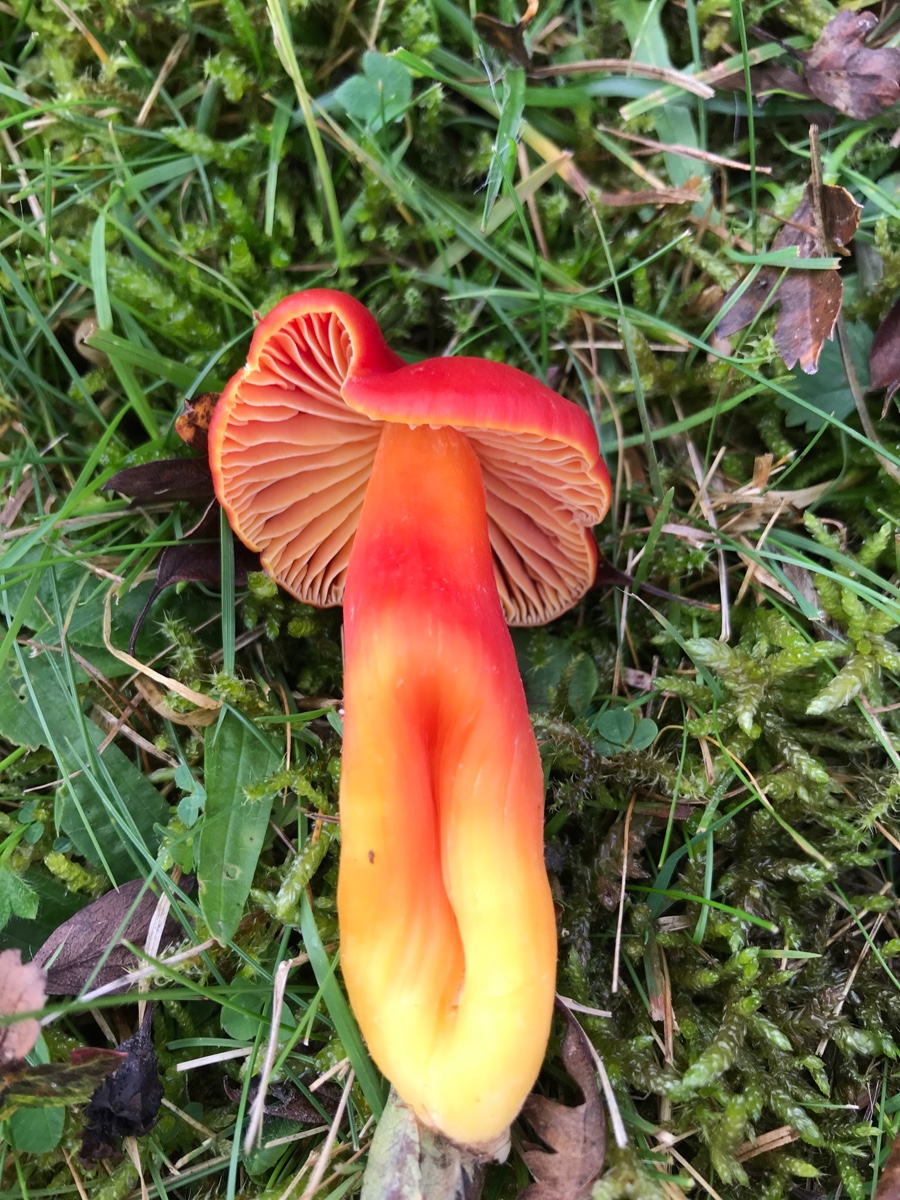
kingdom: Fungi
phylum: Basidiomycota
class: Agaricomycetes
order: Agaricales
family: Hygrophoraceae
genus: Hygrocybe
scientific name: Hygrocybe splendidissima
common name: knaldrød vokshat
